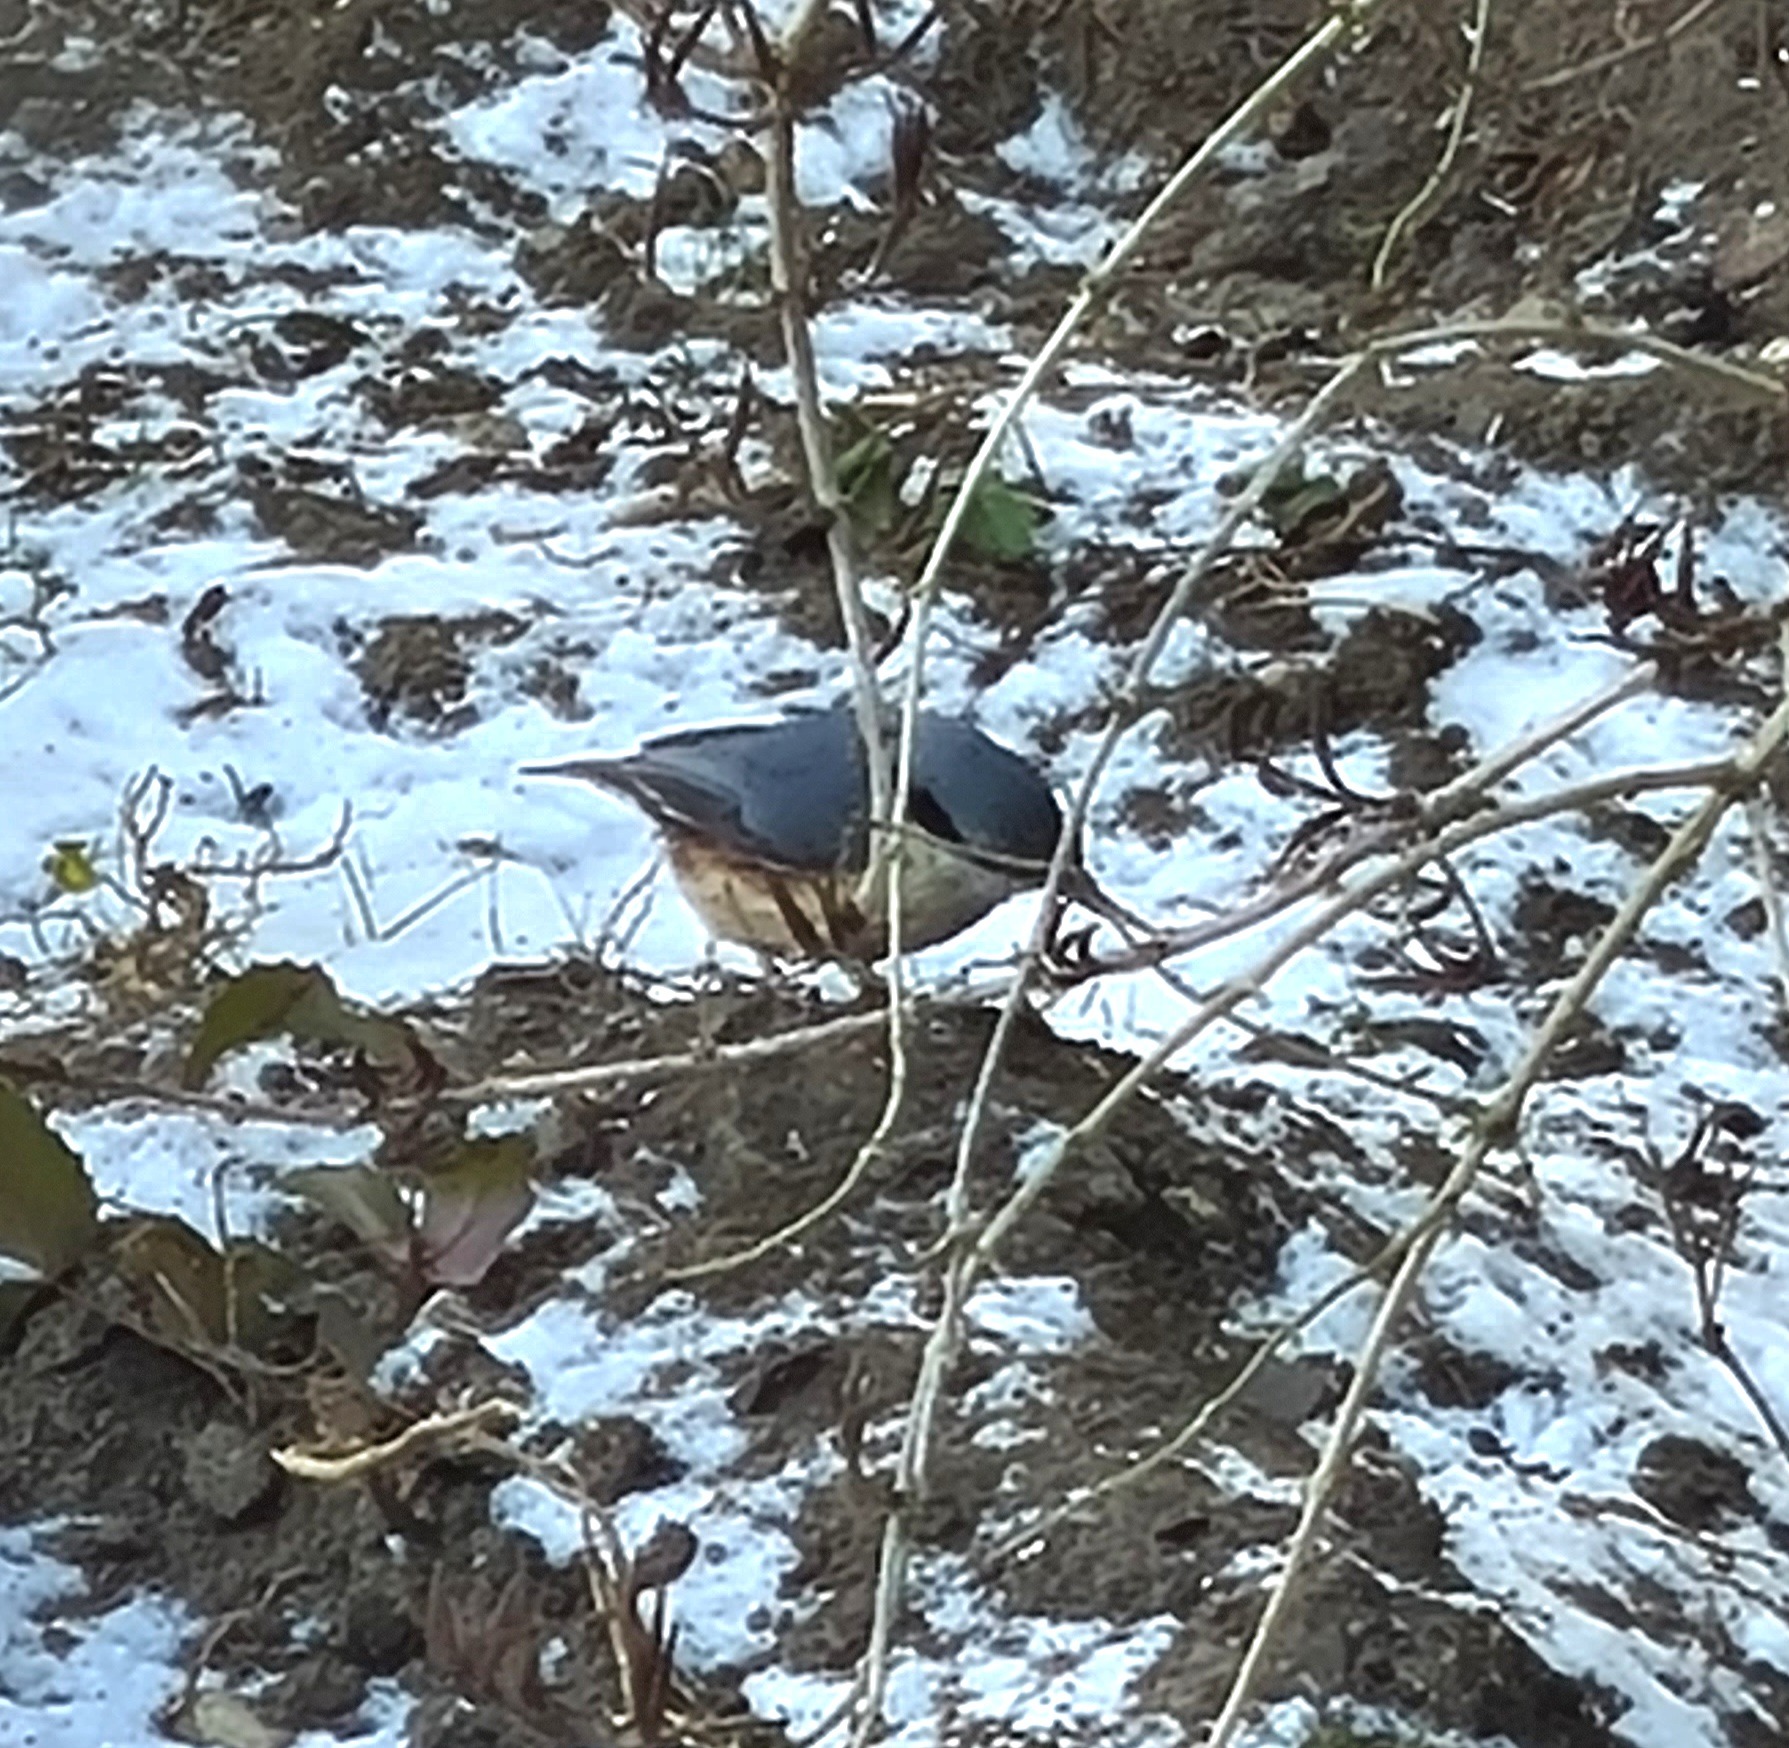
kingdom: Animalia
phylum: Chordata
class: Aves
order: Passeriformes
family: Sittidae
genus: Sitta
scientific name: Sitta europaea
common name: Spætmejse
